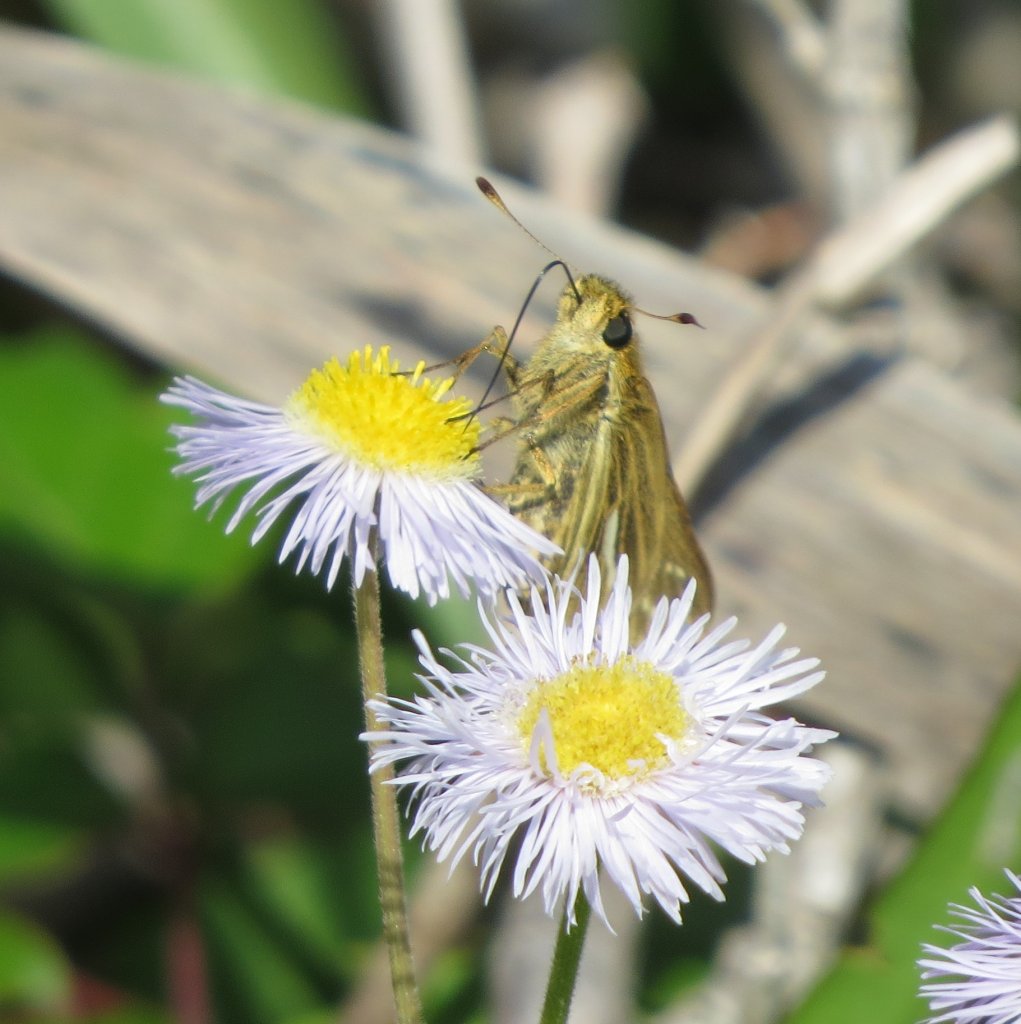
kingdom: Animalia
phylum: Arthropoda
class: Insecta
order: Lepidoptera
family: Hesperiidae
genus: Panoquina
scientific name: Panoquina panoquin
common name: Salt Marsh Skipper
